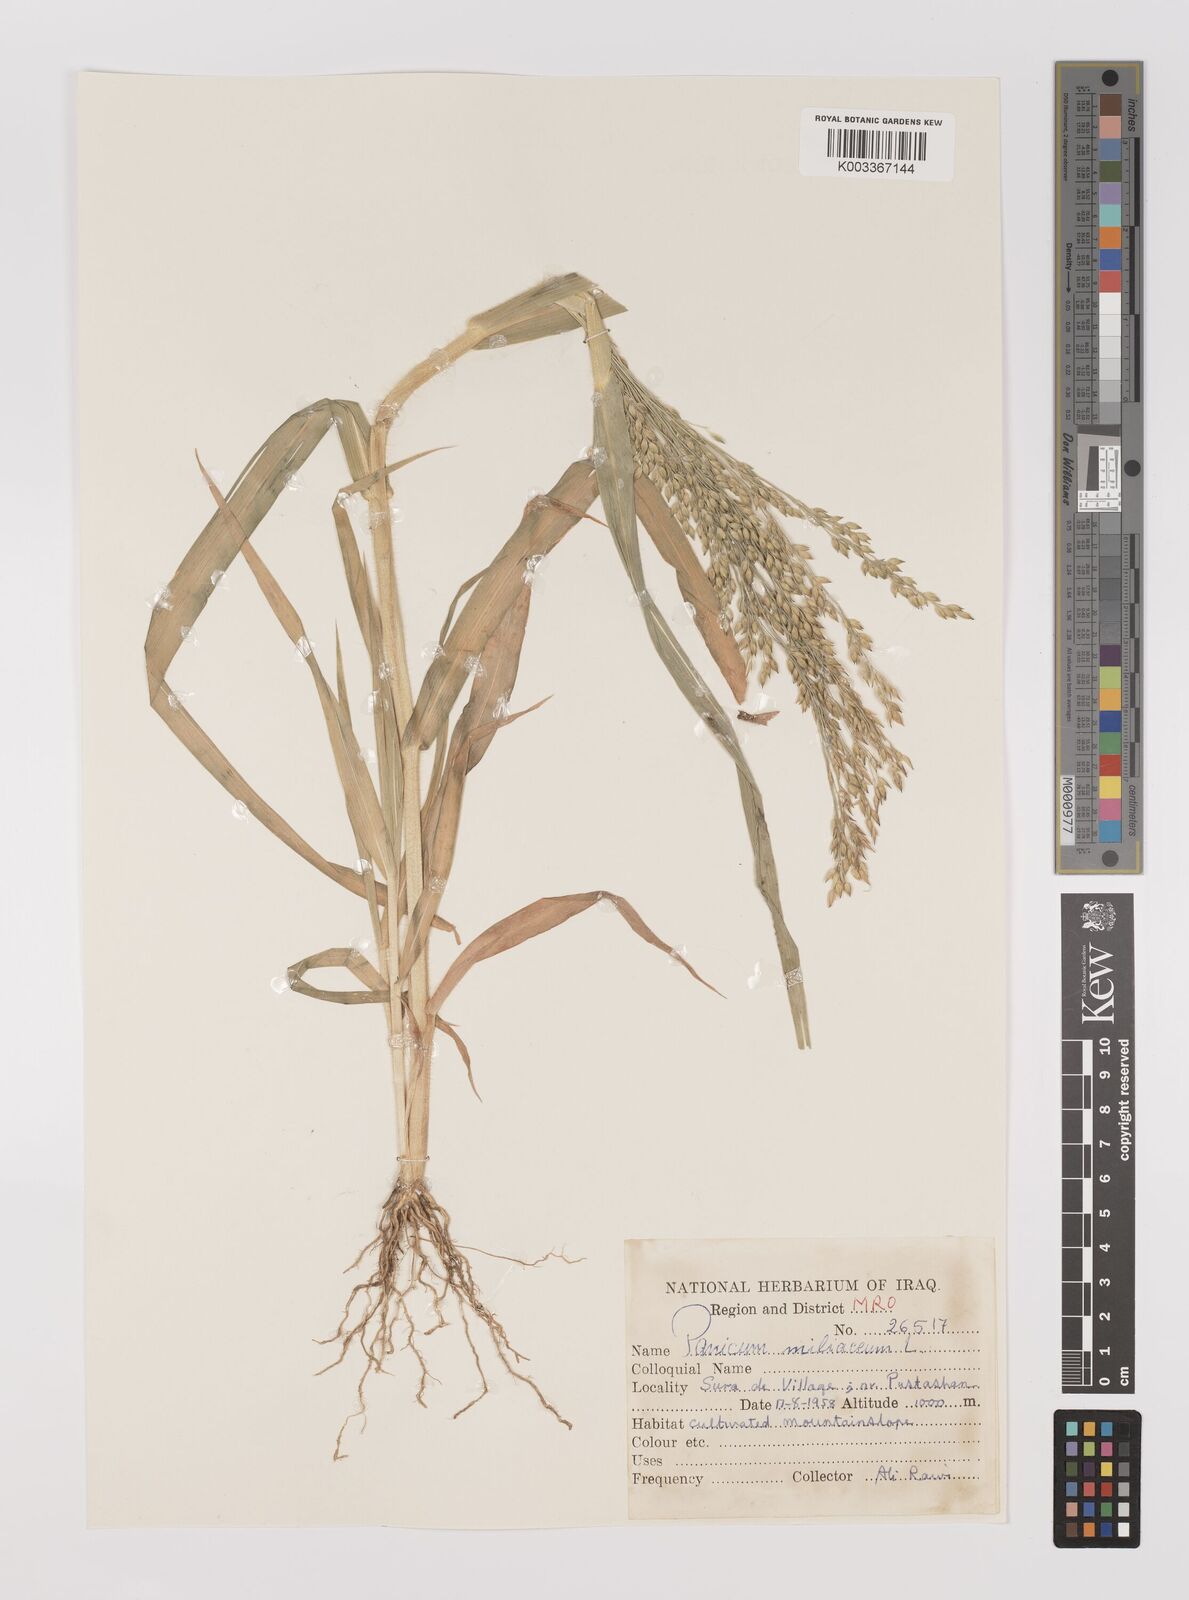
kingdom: Plantae
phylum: Tracheophyta
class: Liliopsida
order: Poales
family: Poaceae
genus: Panicum
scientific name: Panicum miliaceum
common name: Common millet
